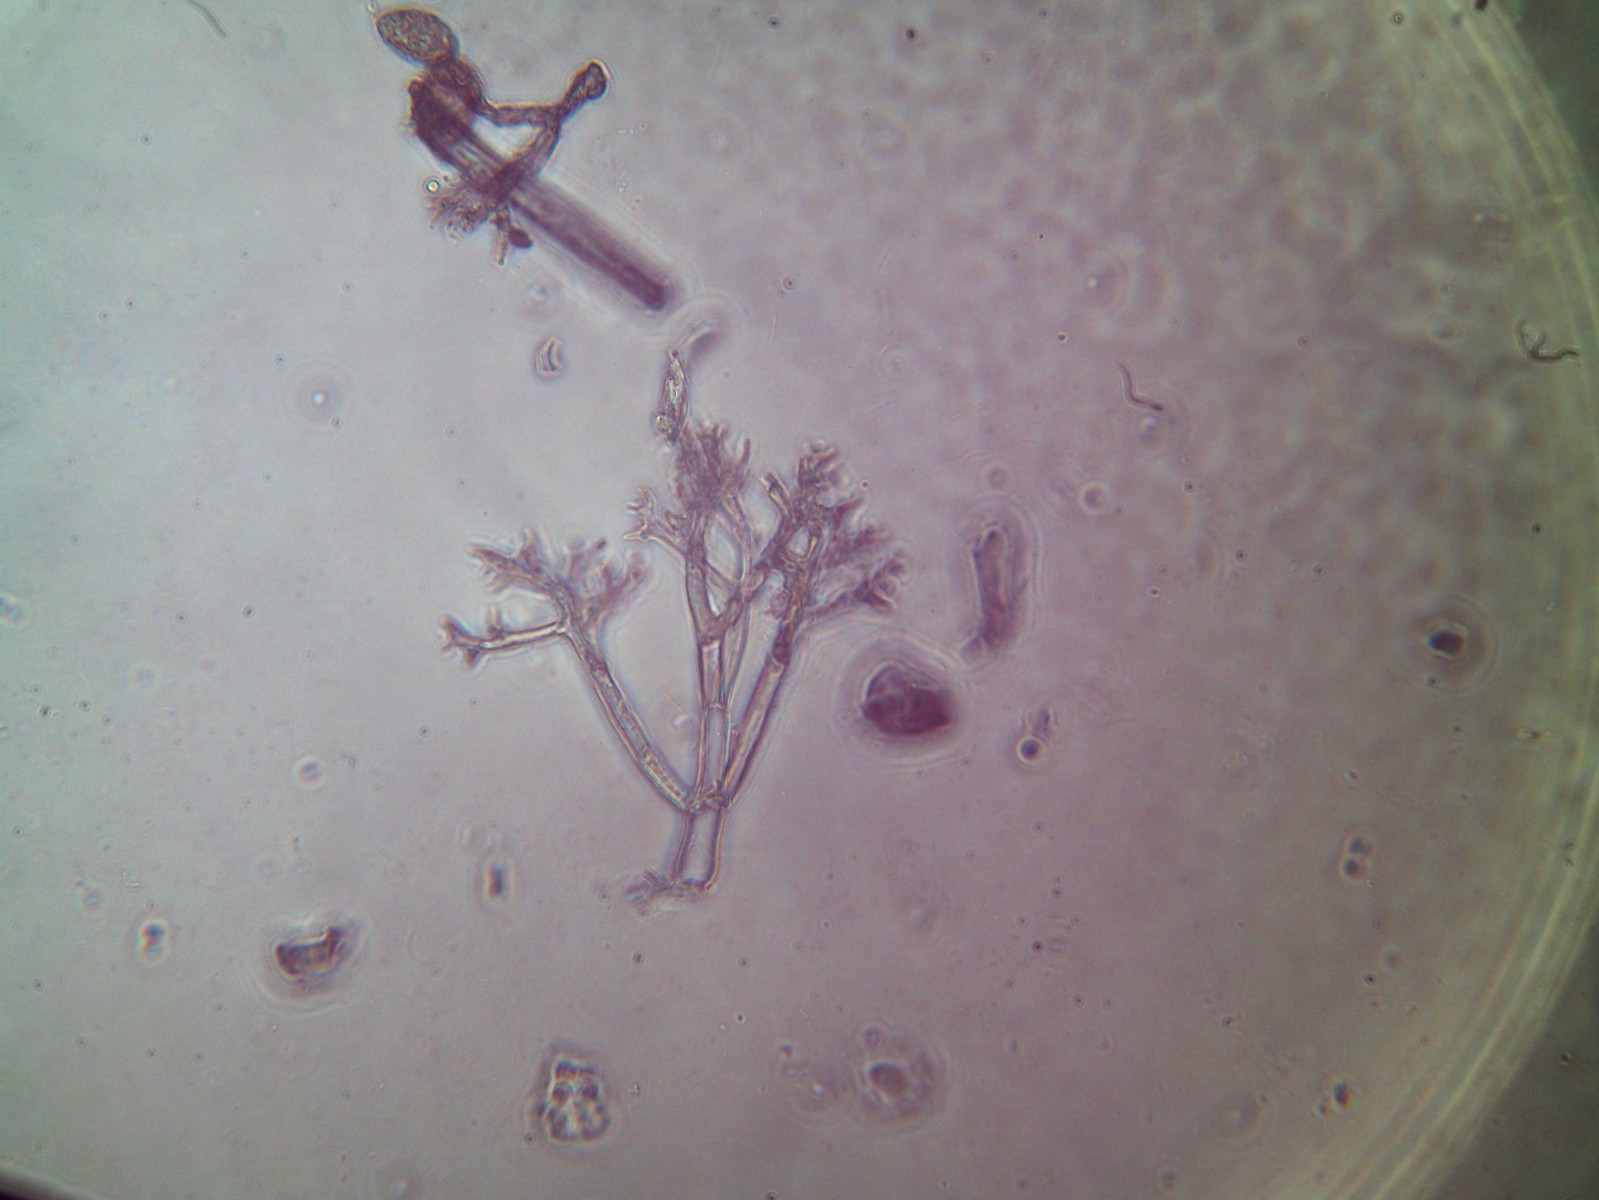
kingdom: Chromista
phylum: Oomycota
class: Peronosporea
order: Peronosporales
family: Peronosporaceae
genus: Peronospora
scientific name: Peronospora radii
